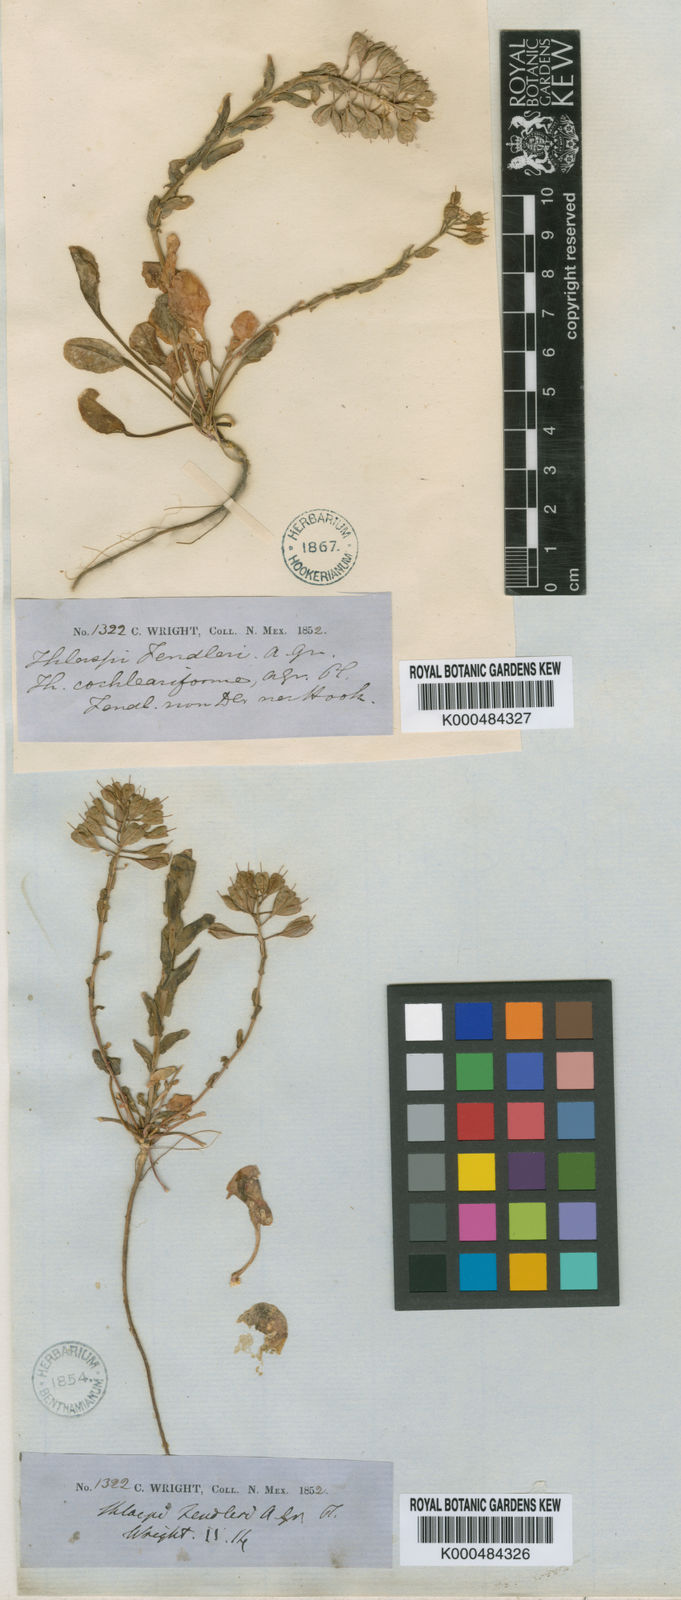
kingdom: Plantae
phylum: Tracheophyta
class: Magnoliopsida
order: Brassicales
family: Brassicaceae
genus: Noccaea
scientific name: Noccaea alpestris
